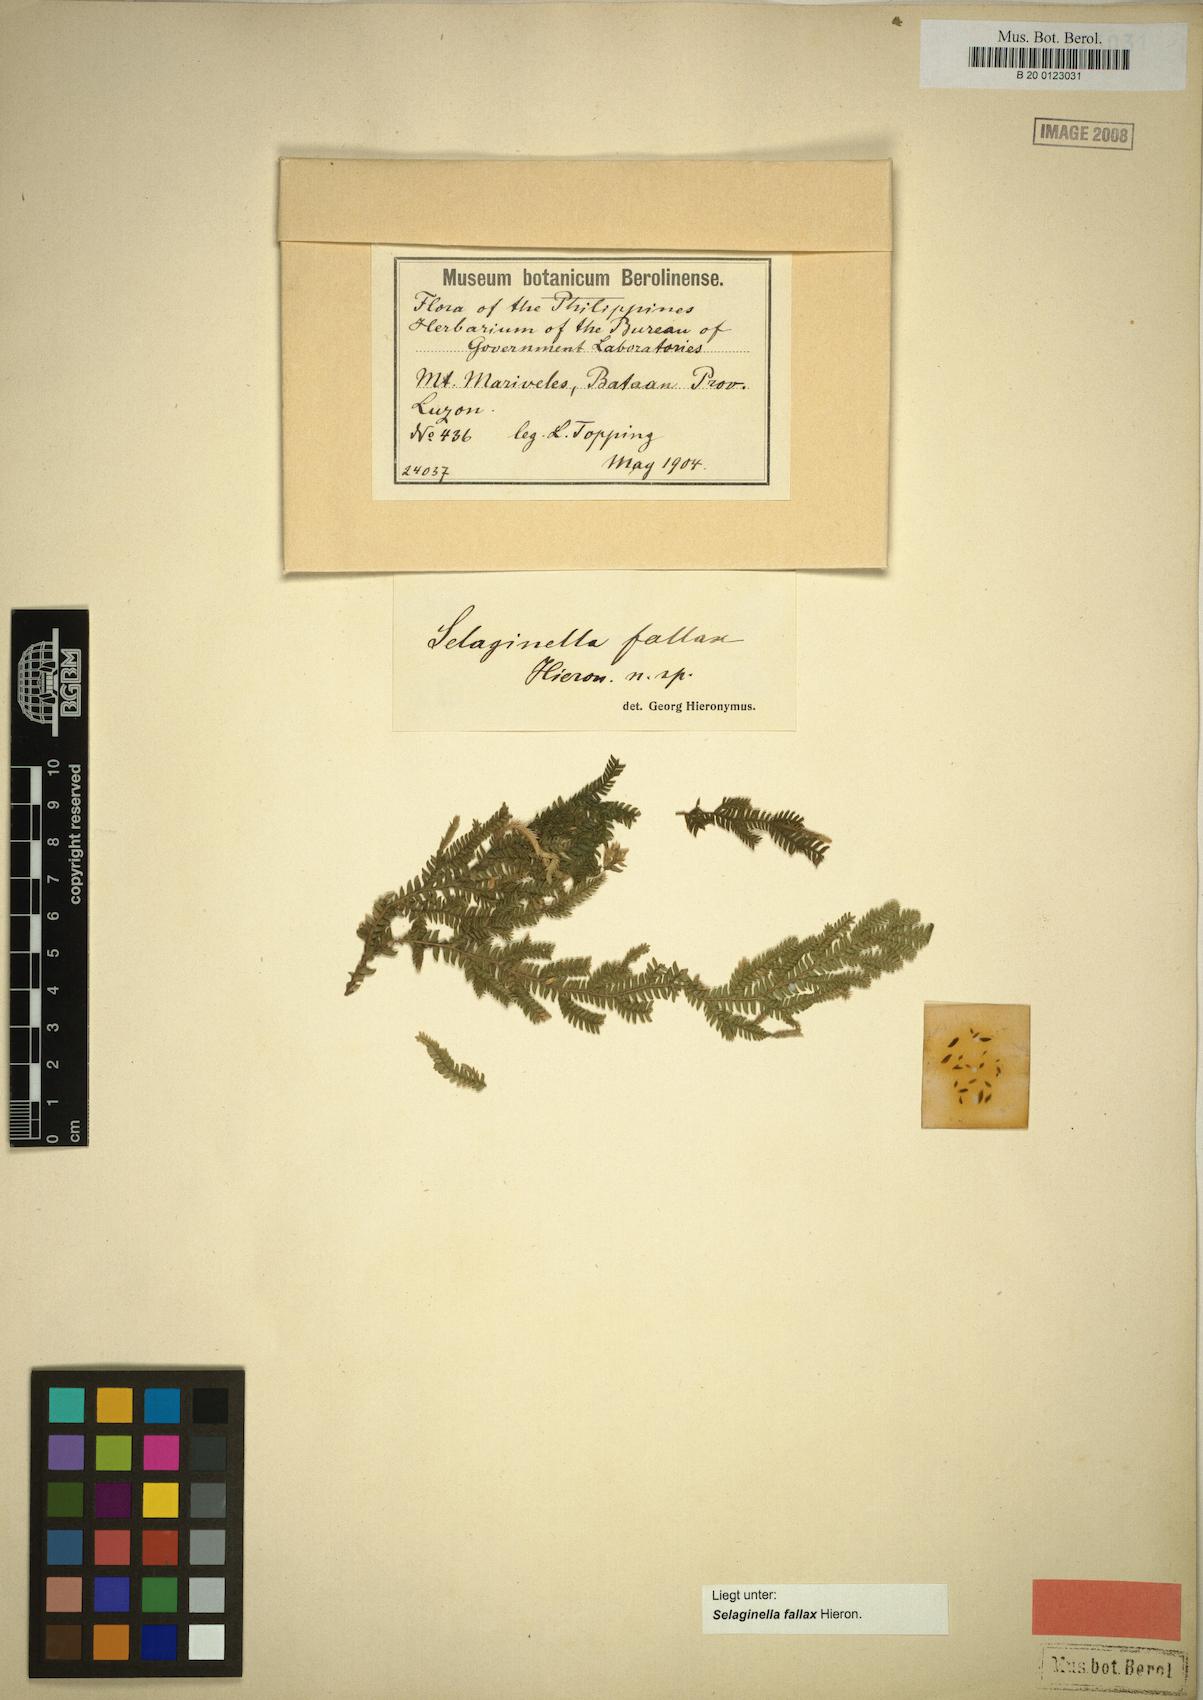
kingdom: Plantae
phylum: Tracheophyta
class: Lycopodiopsida
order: Selaginellales
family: Selaginellaceae
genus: Selaginella
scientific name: Selaginella jagorii
